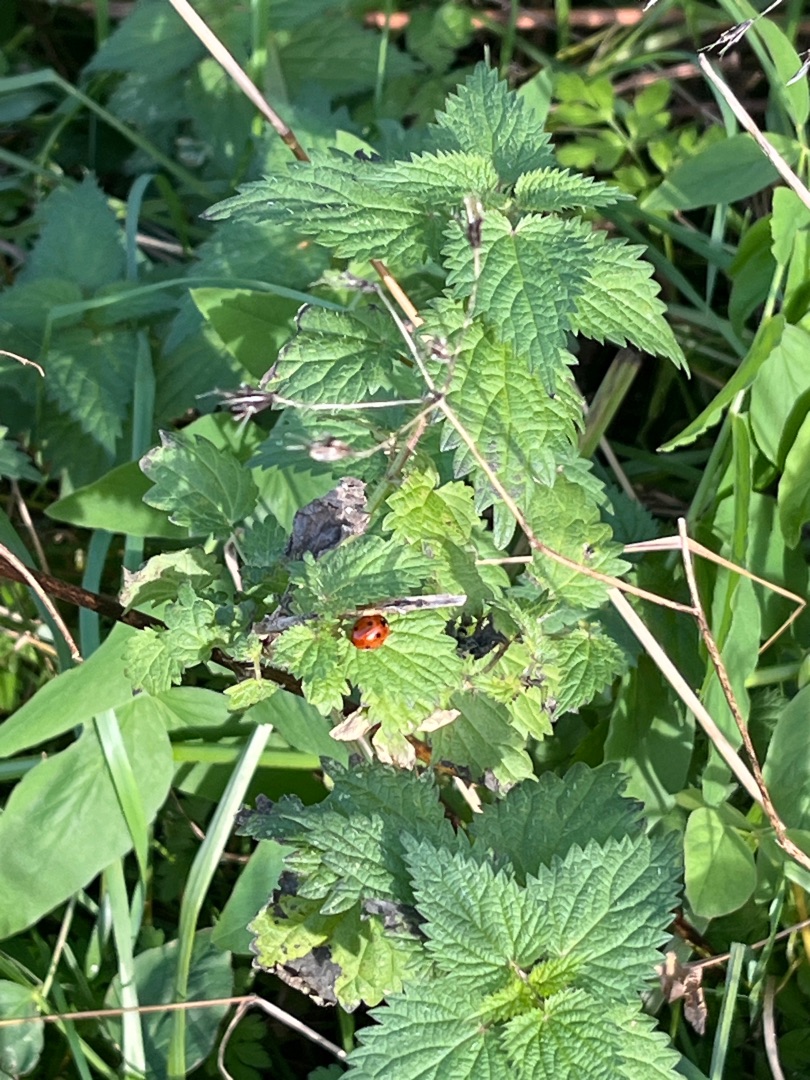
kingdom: Animalia
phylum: Arthropoda
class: Insecta
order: Coleoptera
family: Coccinellidae
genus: Coccinella
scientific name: Coccinella septempunctata
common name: Syvplettet mariehøne
